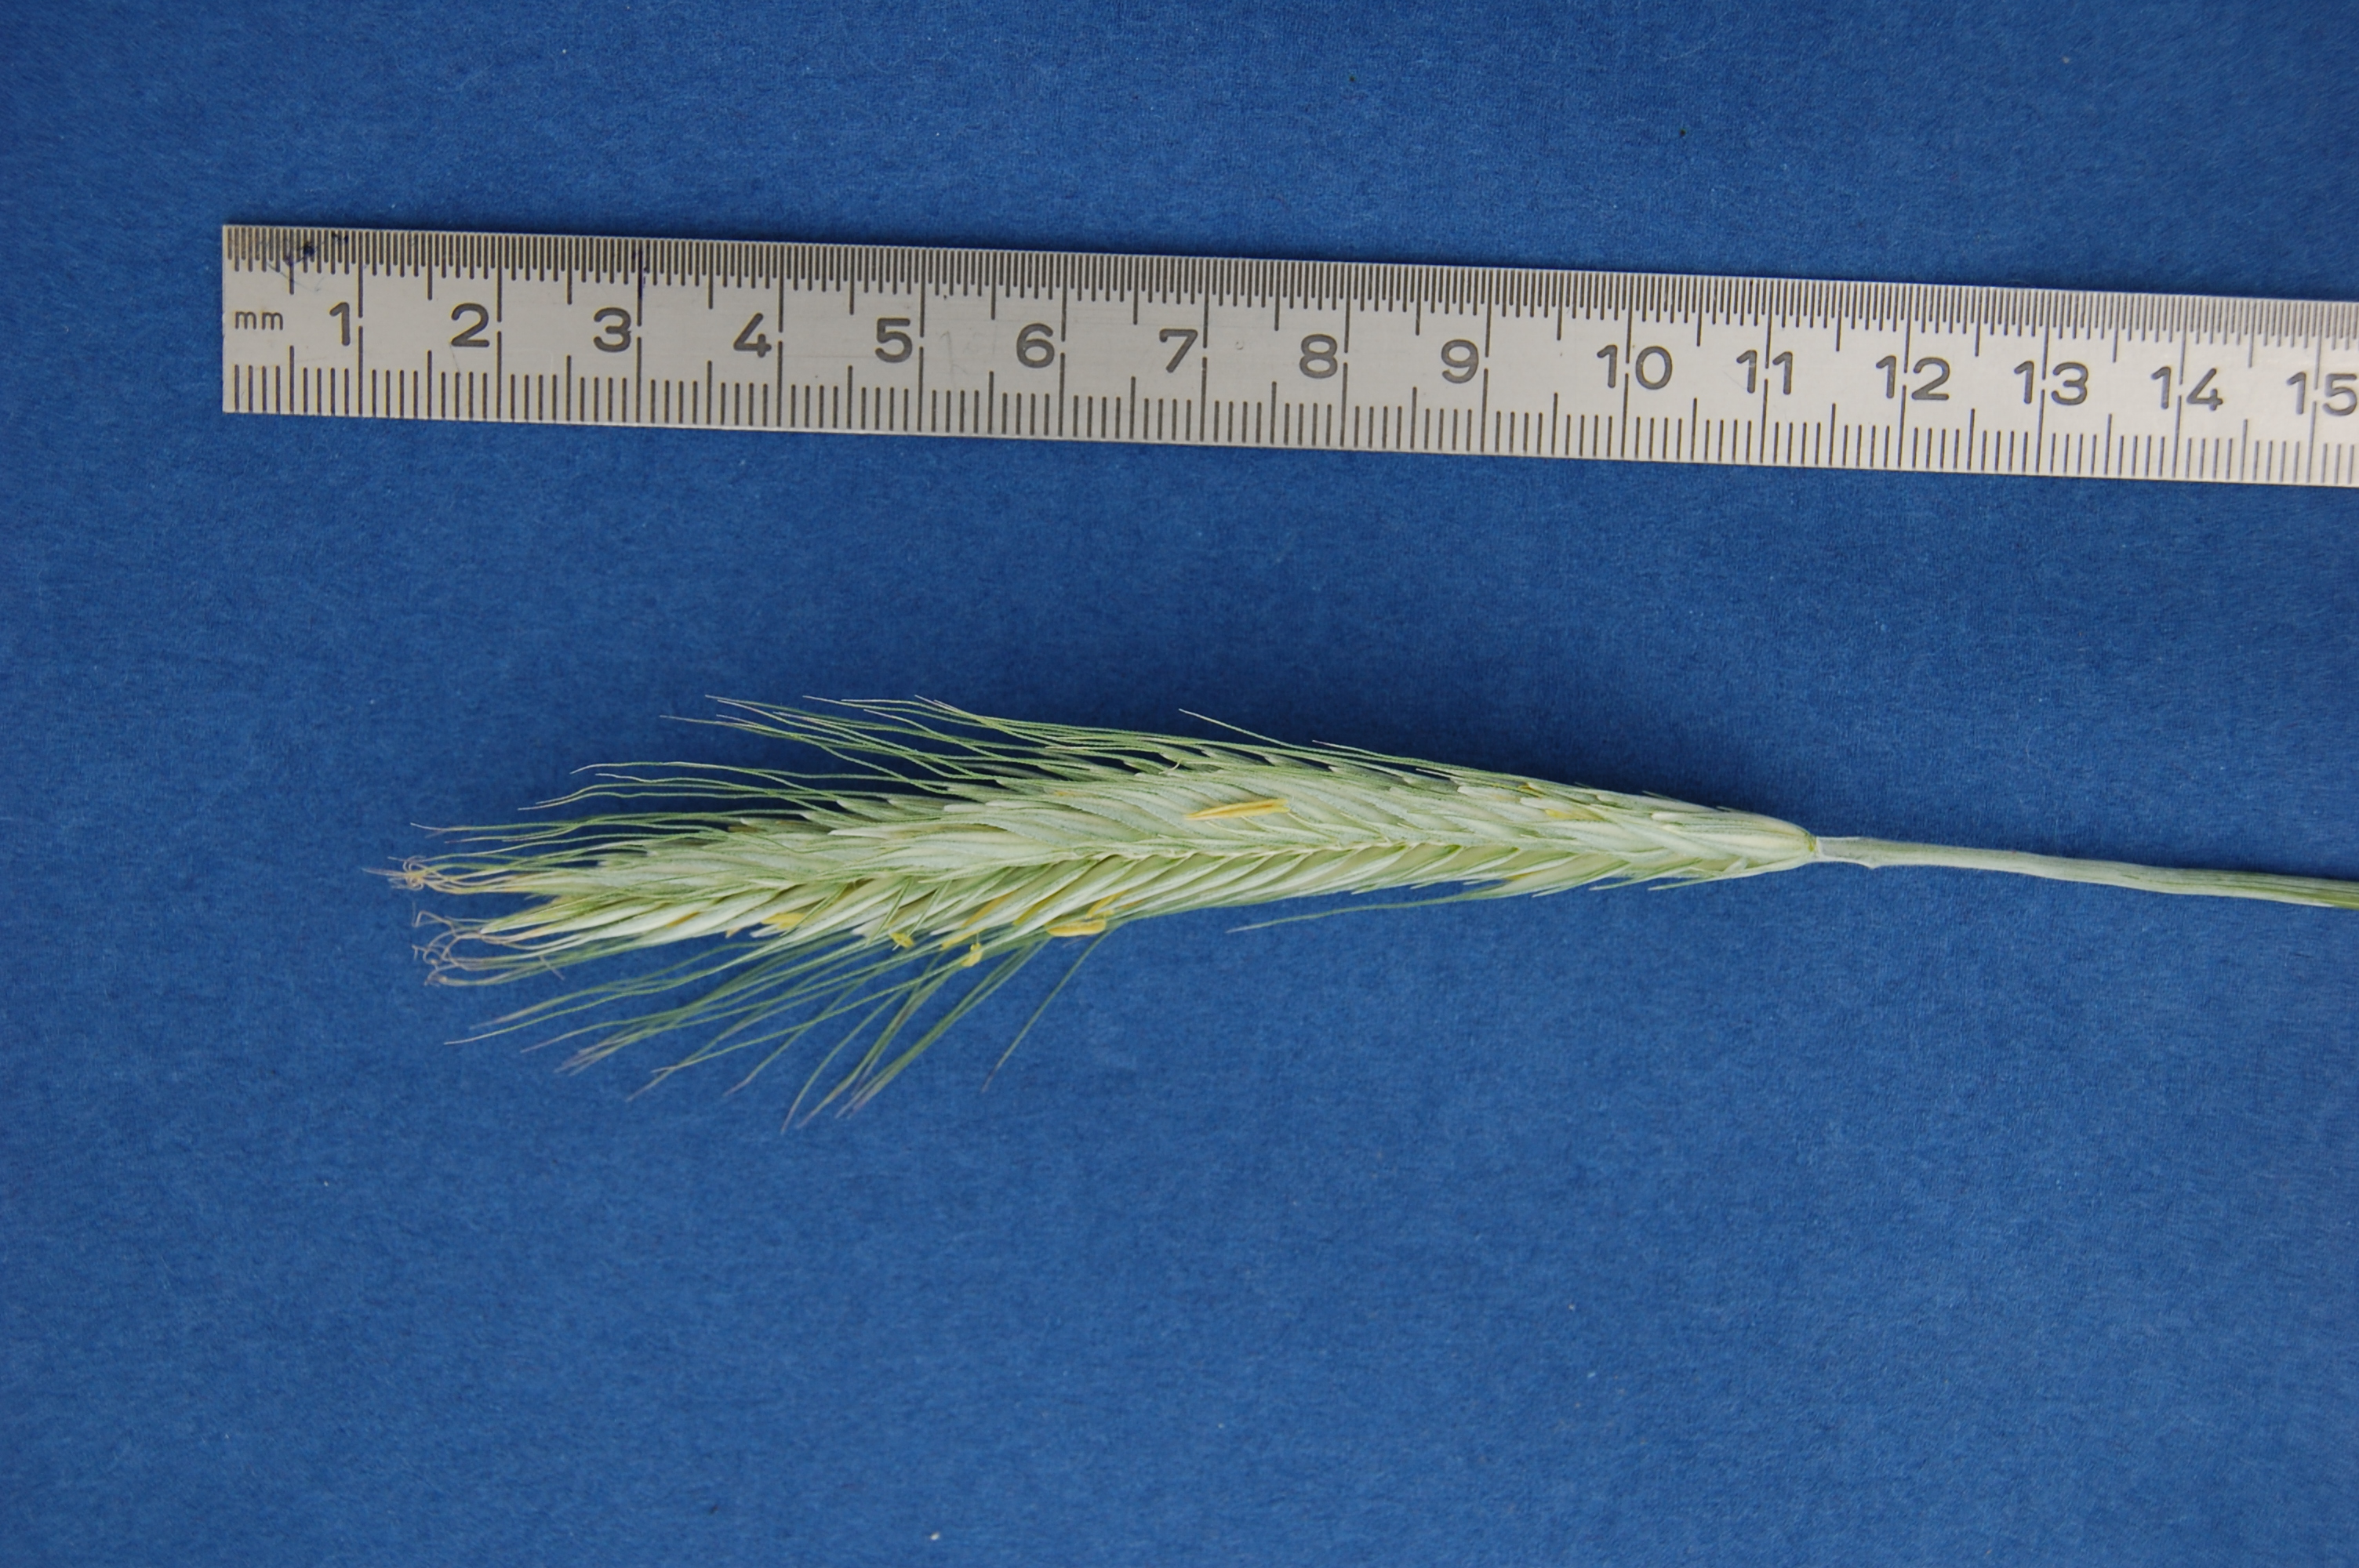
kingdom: Plantae
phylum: Tracheophyta
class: Liliopsida
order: Poales
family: Poaceae
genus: Secale
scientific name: Secale cereale
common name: Rye
